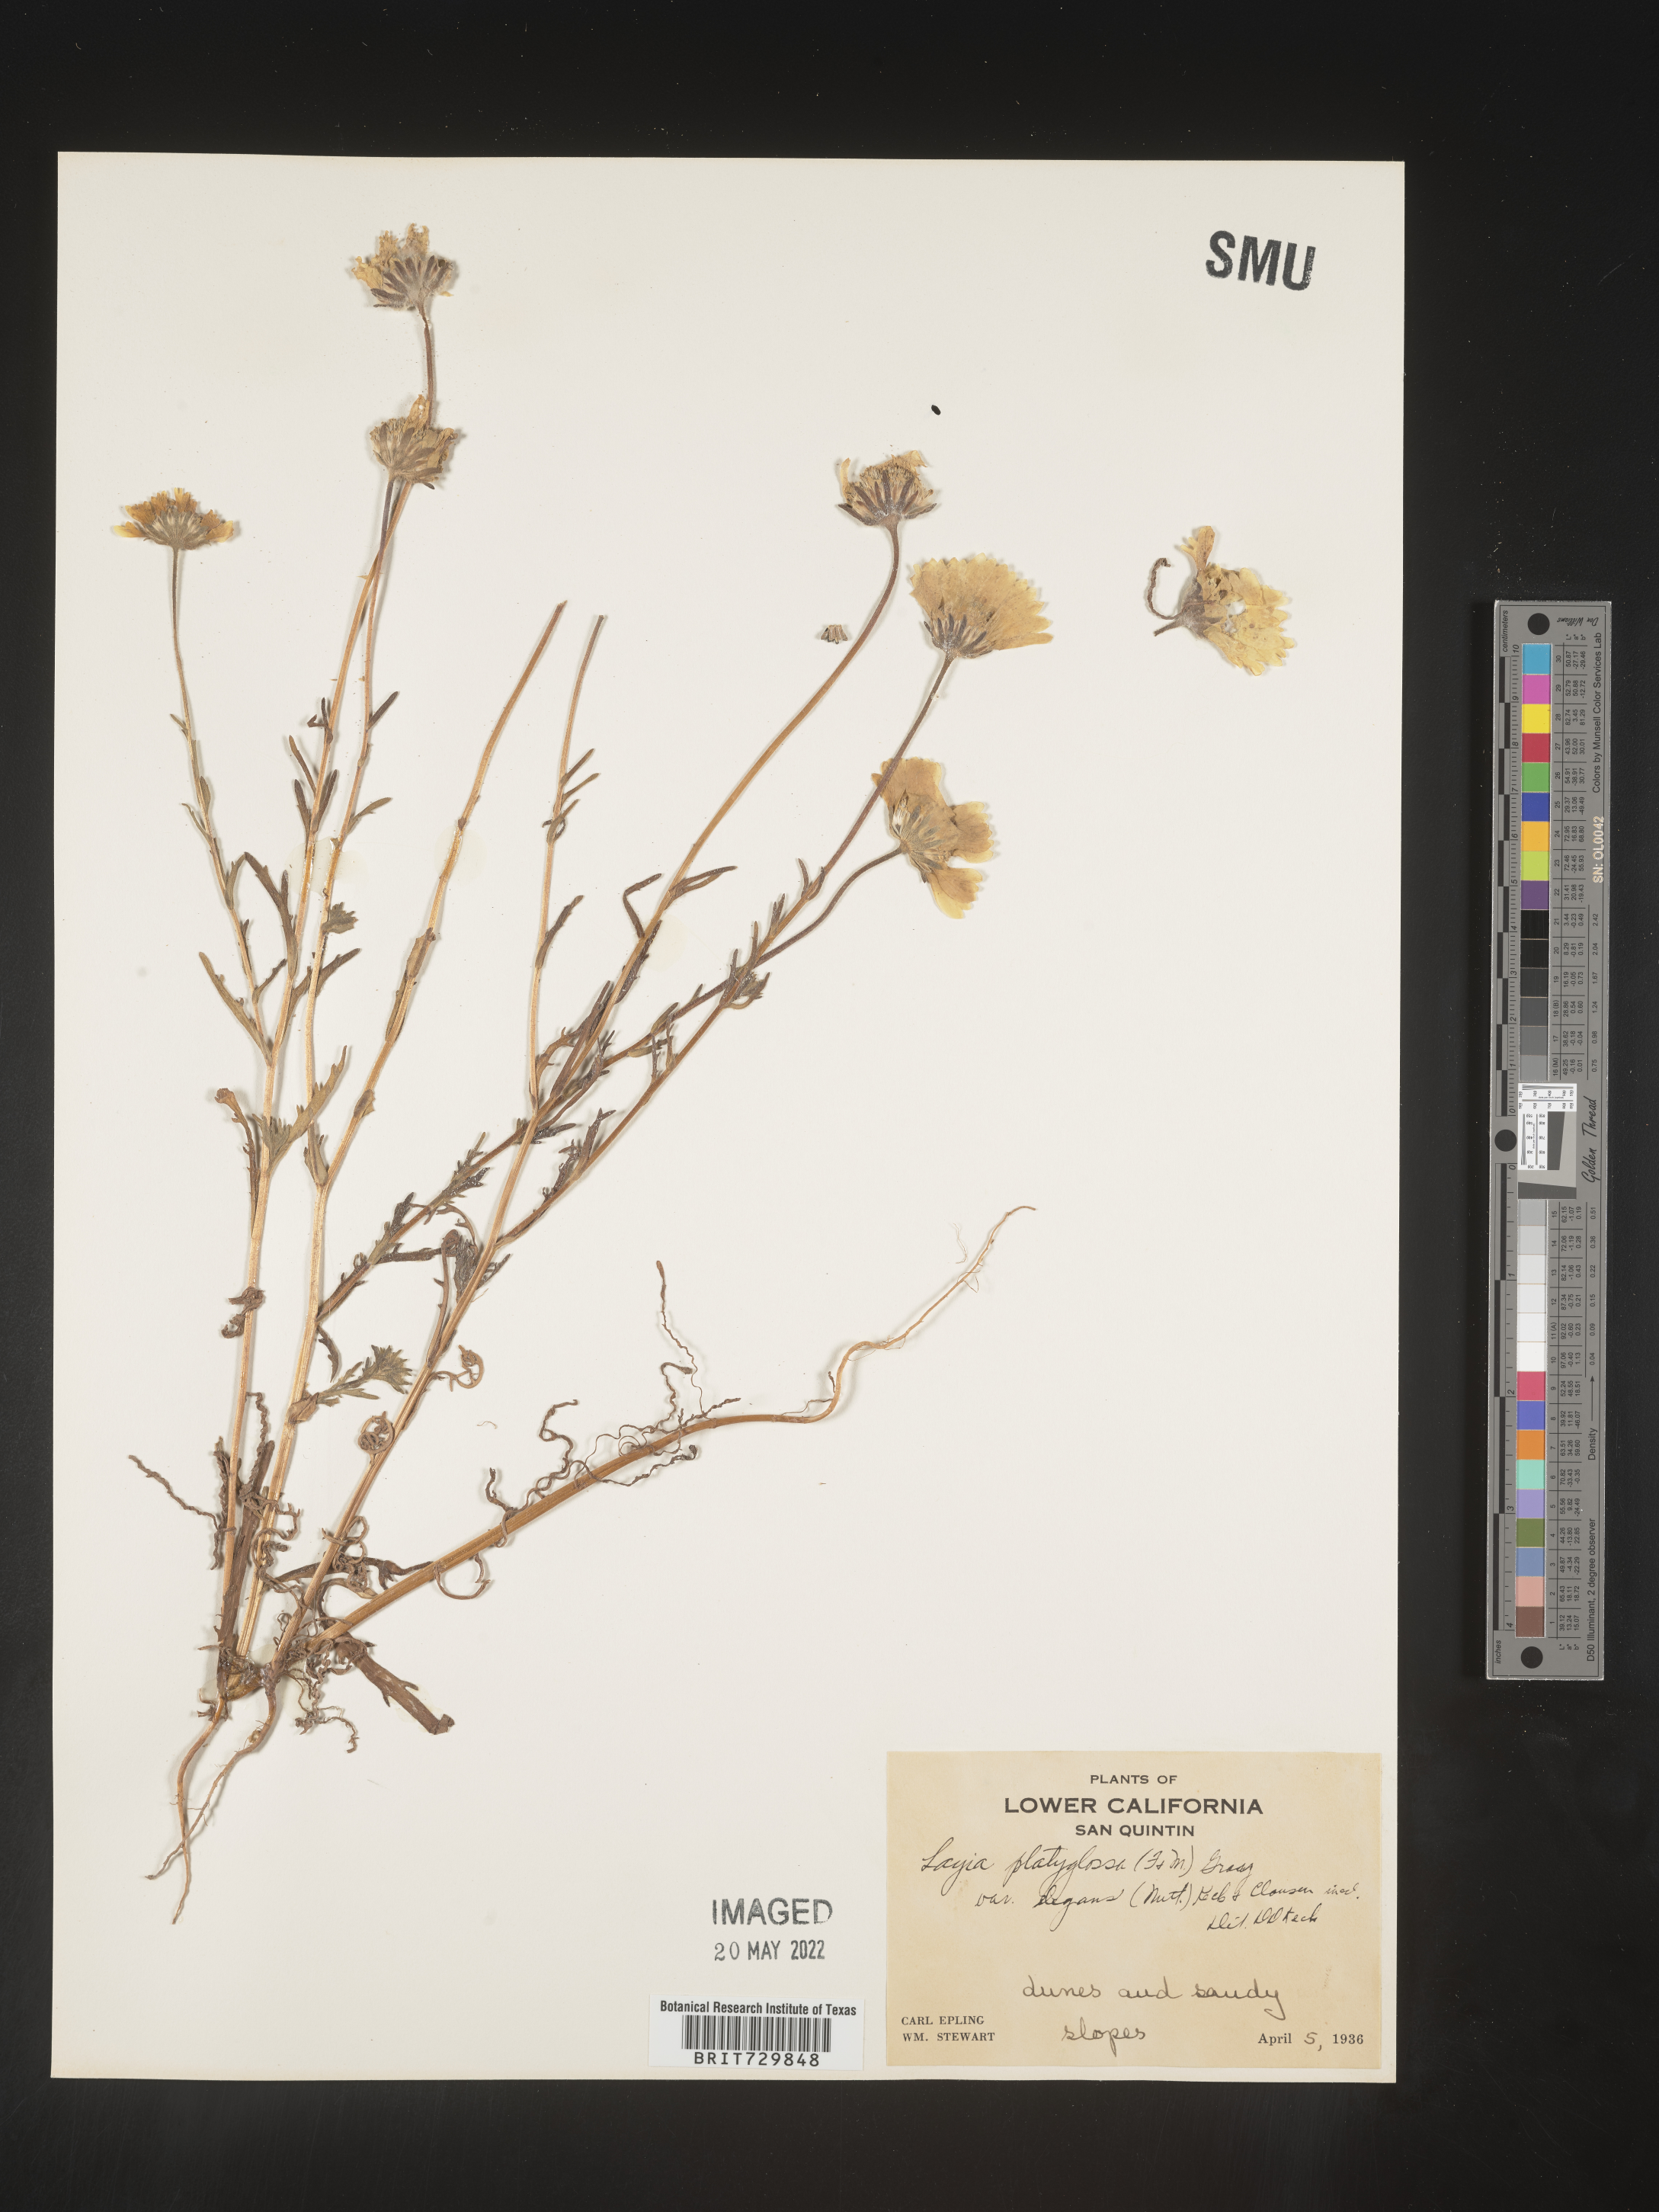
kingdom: Plantae
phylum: Tracheophyta
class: Magnoliopsida
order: Asterales
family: Asteraceae
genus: Layia
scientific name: Layia
